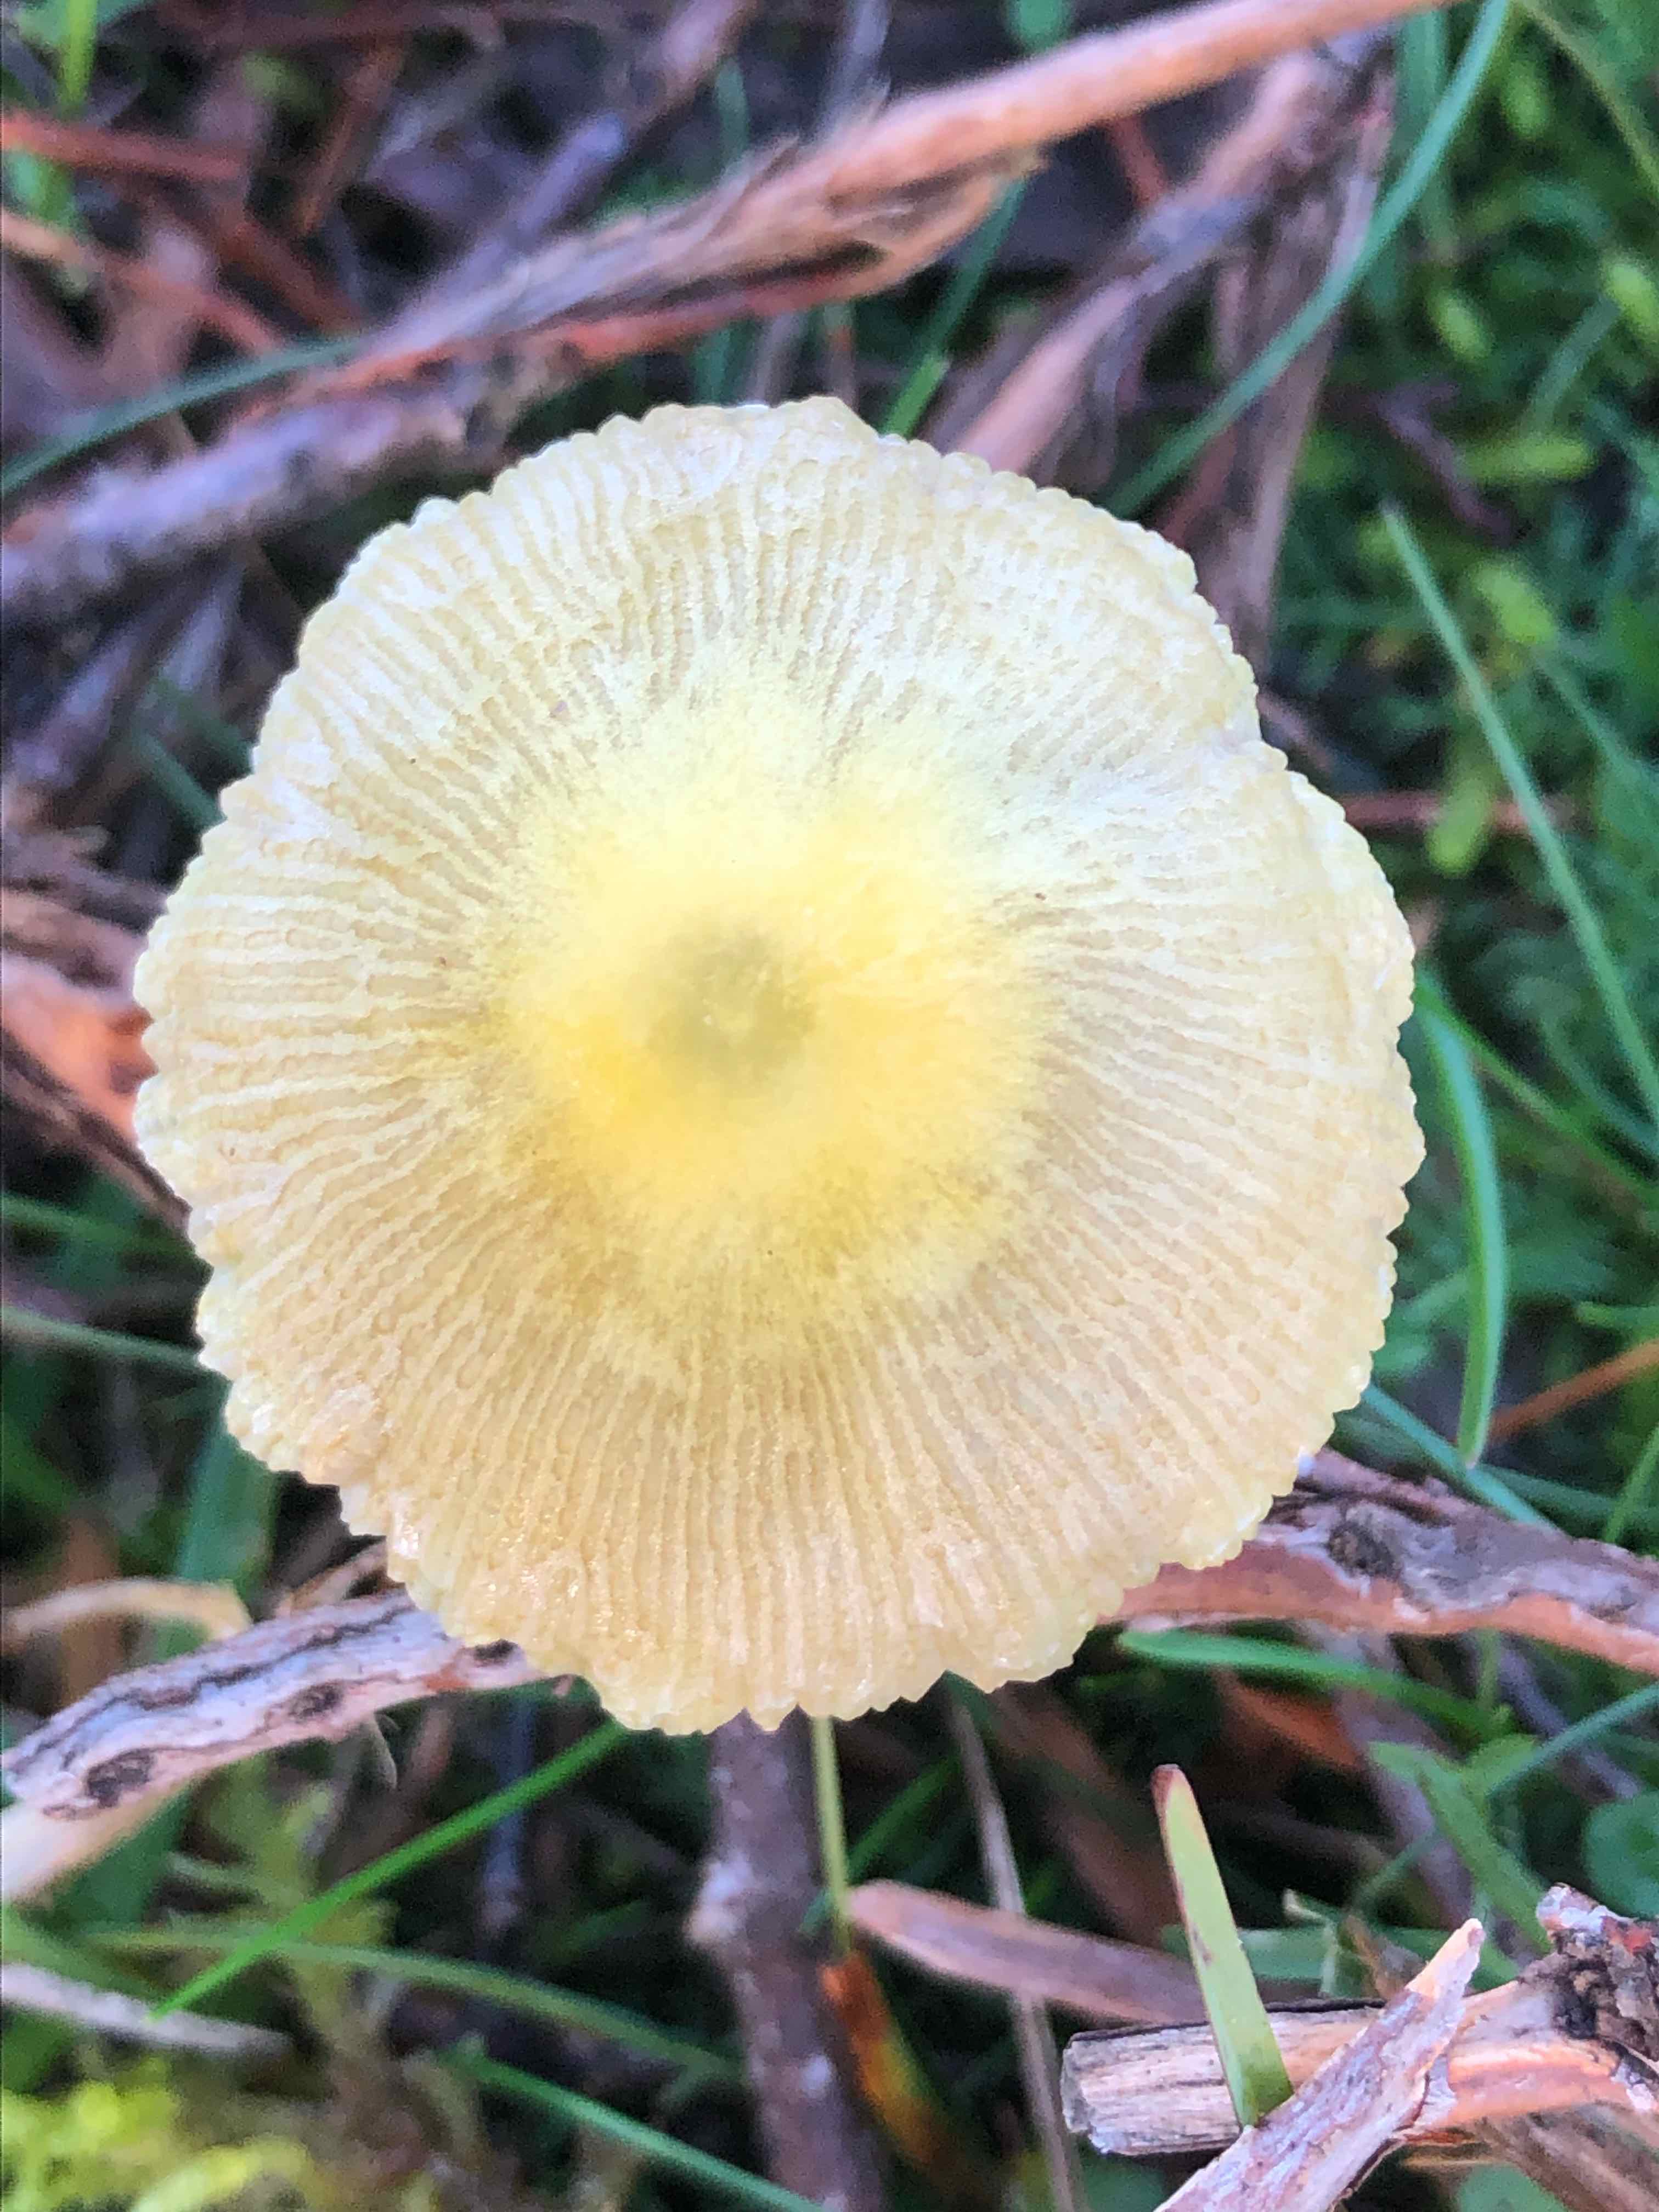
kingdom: Fungi
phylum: Basidiomycota
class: Agaricomycetes
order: Agaricales
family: Bolbitiaceae
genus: Bolbitius
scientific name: Bolbitius titubans
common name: almindelig gulhat
